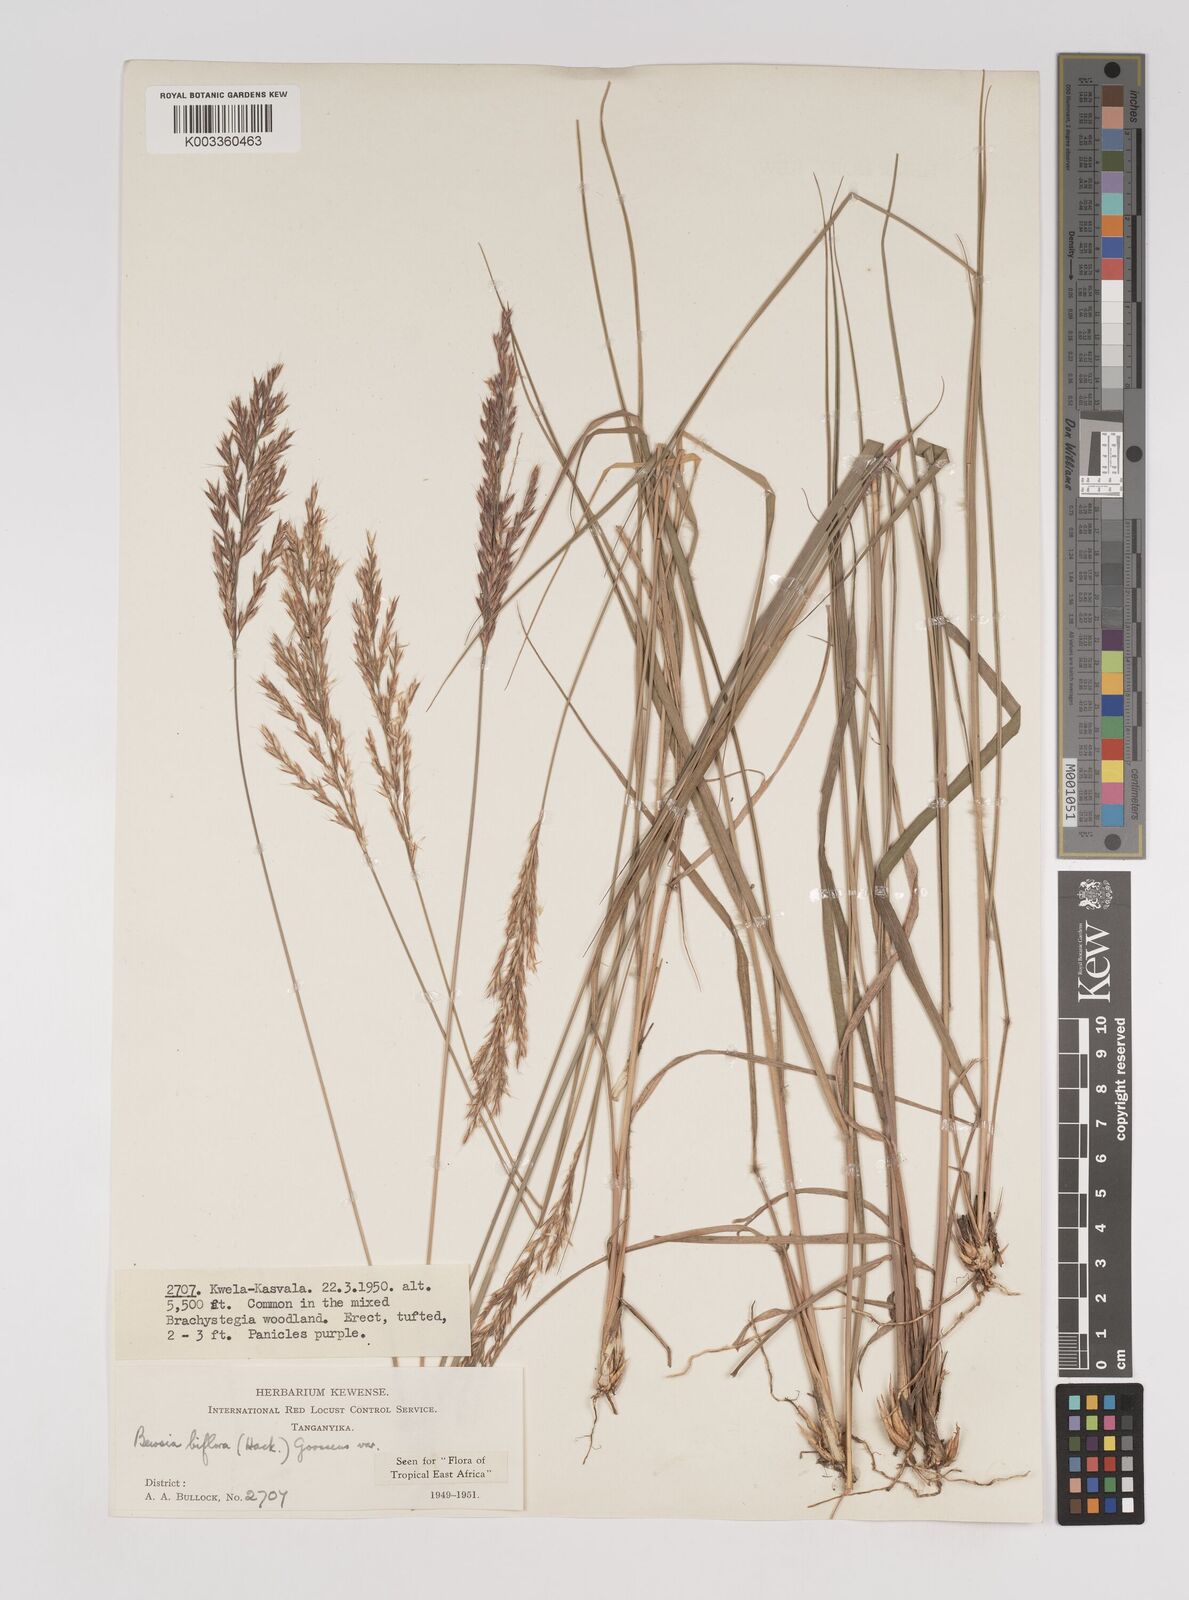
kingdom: Plantae
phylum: Tracheophyta
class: Liliopsida
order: Poales
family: Poaceae
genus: Bewsia
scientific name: Bewsia biflora
